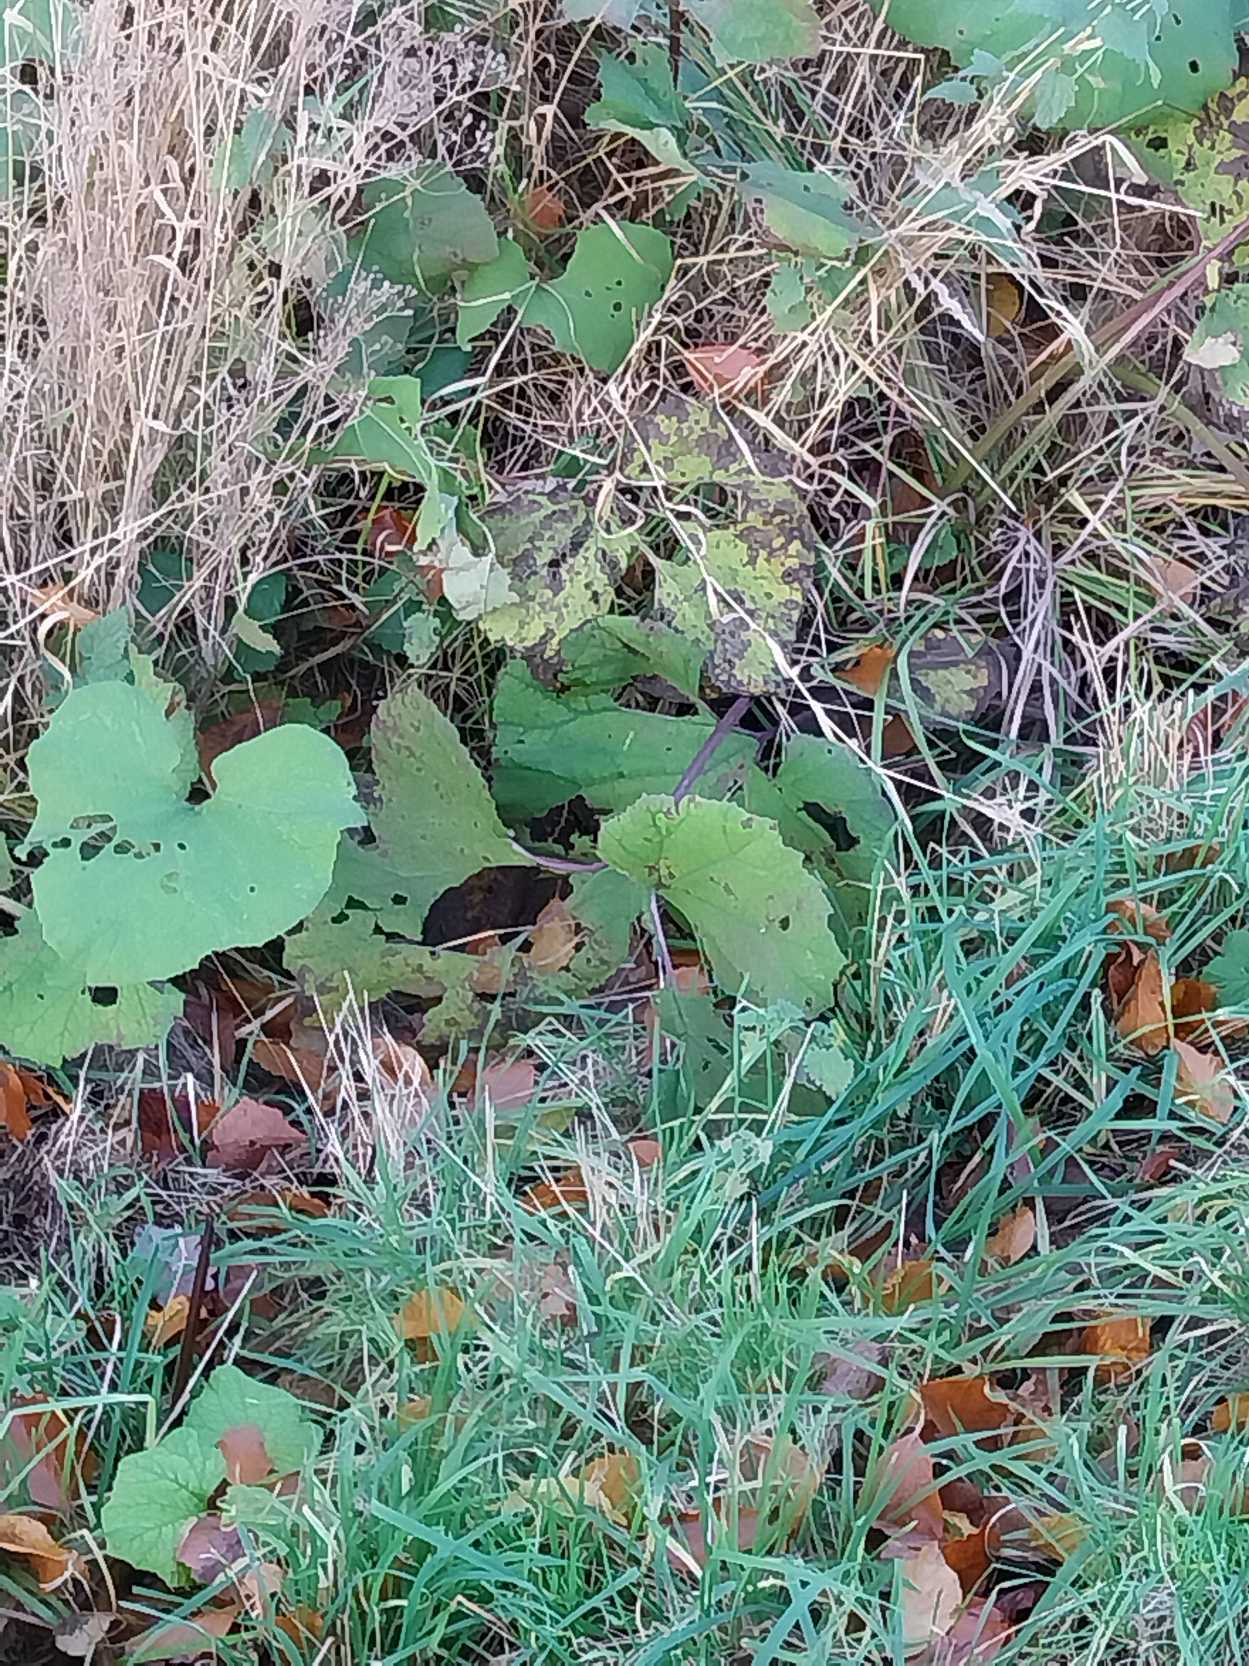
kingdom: Plantae
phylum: Tracheophyta
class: Magnoliopsida
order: Asterales
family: Asteraceae
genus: Petasites
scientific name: Petasites hybridus
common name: Rød hestehov
